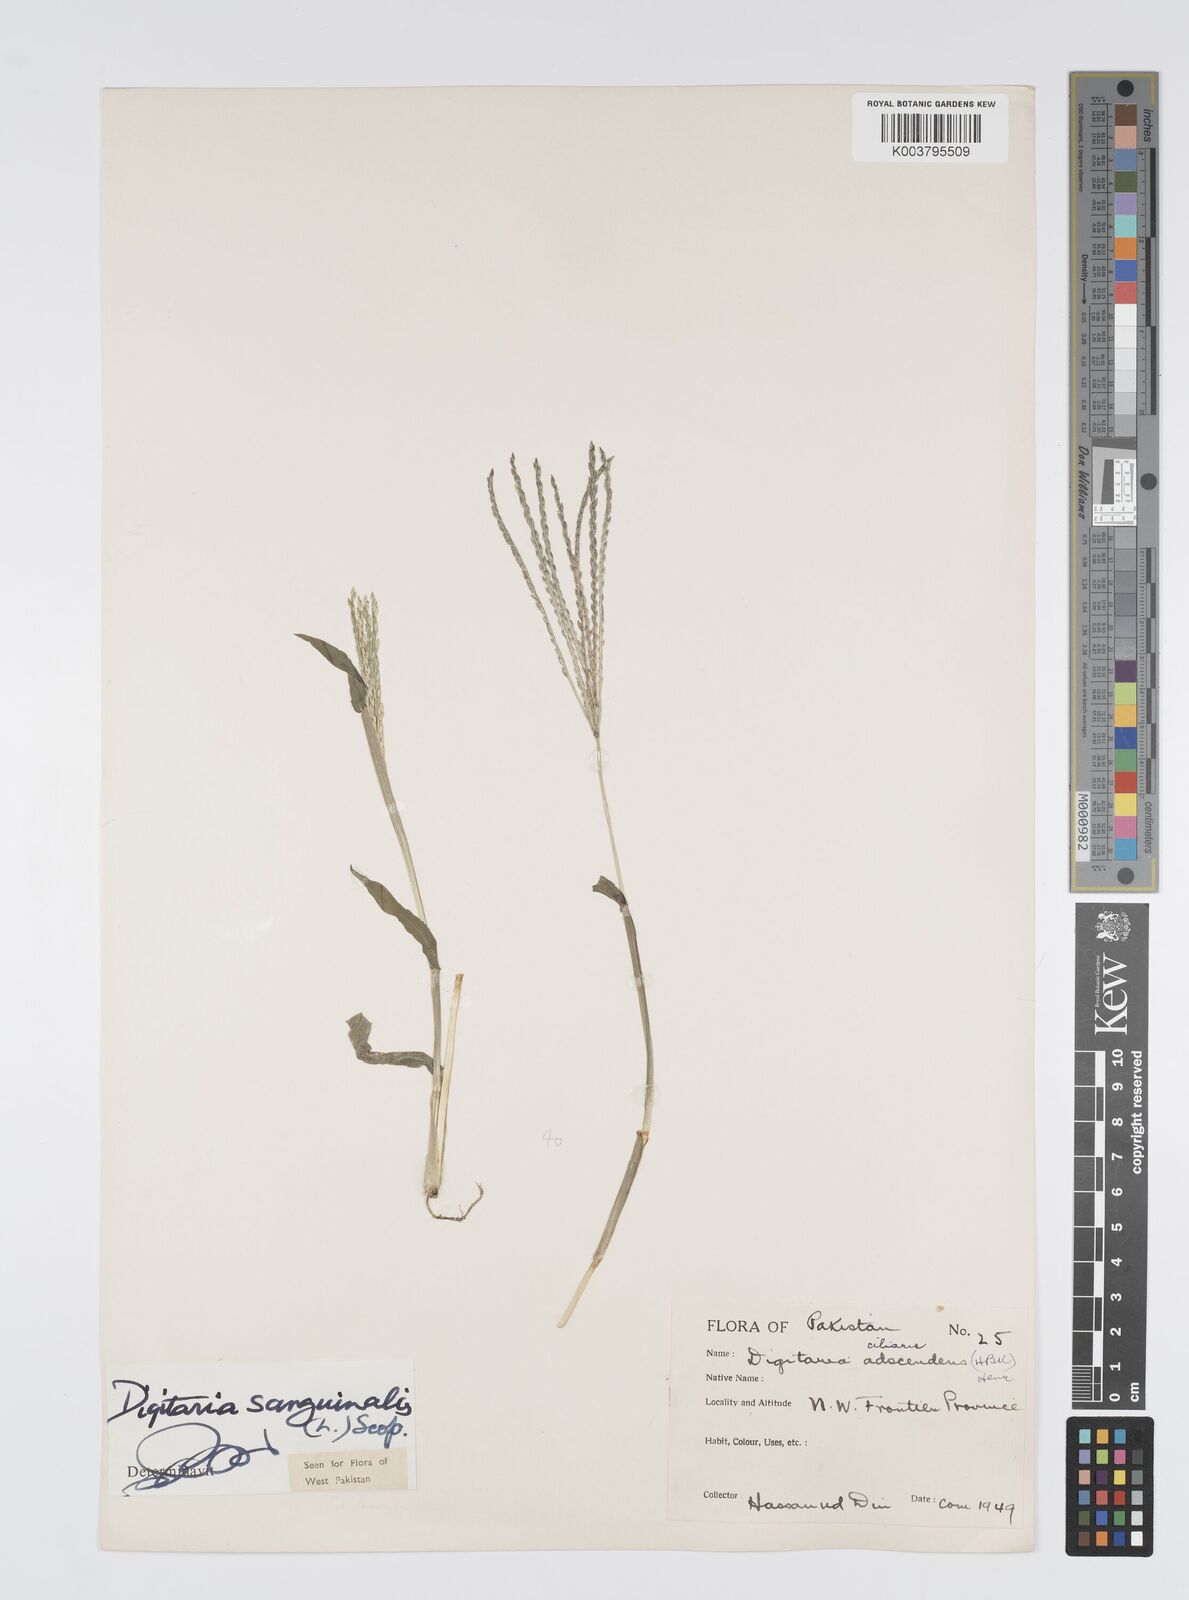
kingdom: Plantae
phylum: Tracheophyta
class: Liliopsida
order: Poales
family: Poaceae
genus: Digitaria
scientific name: Digitaria sanguinalis
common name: Hairy crabgrass
